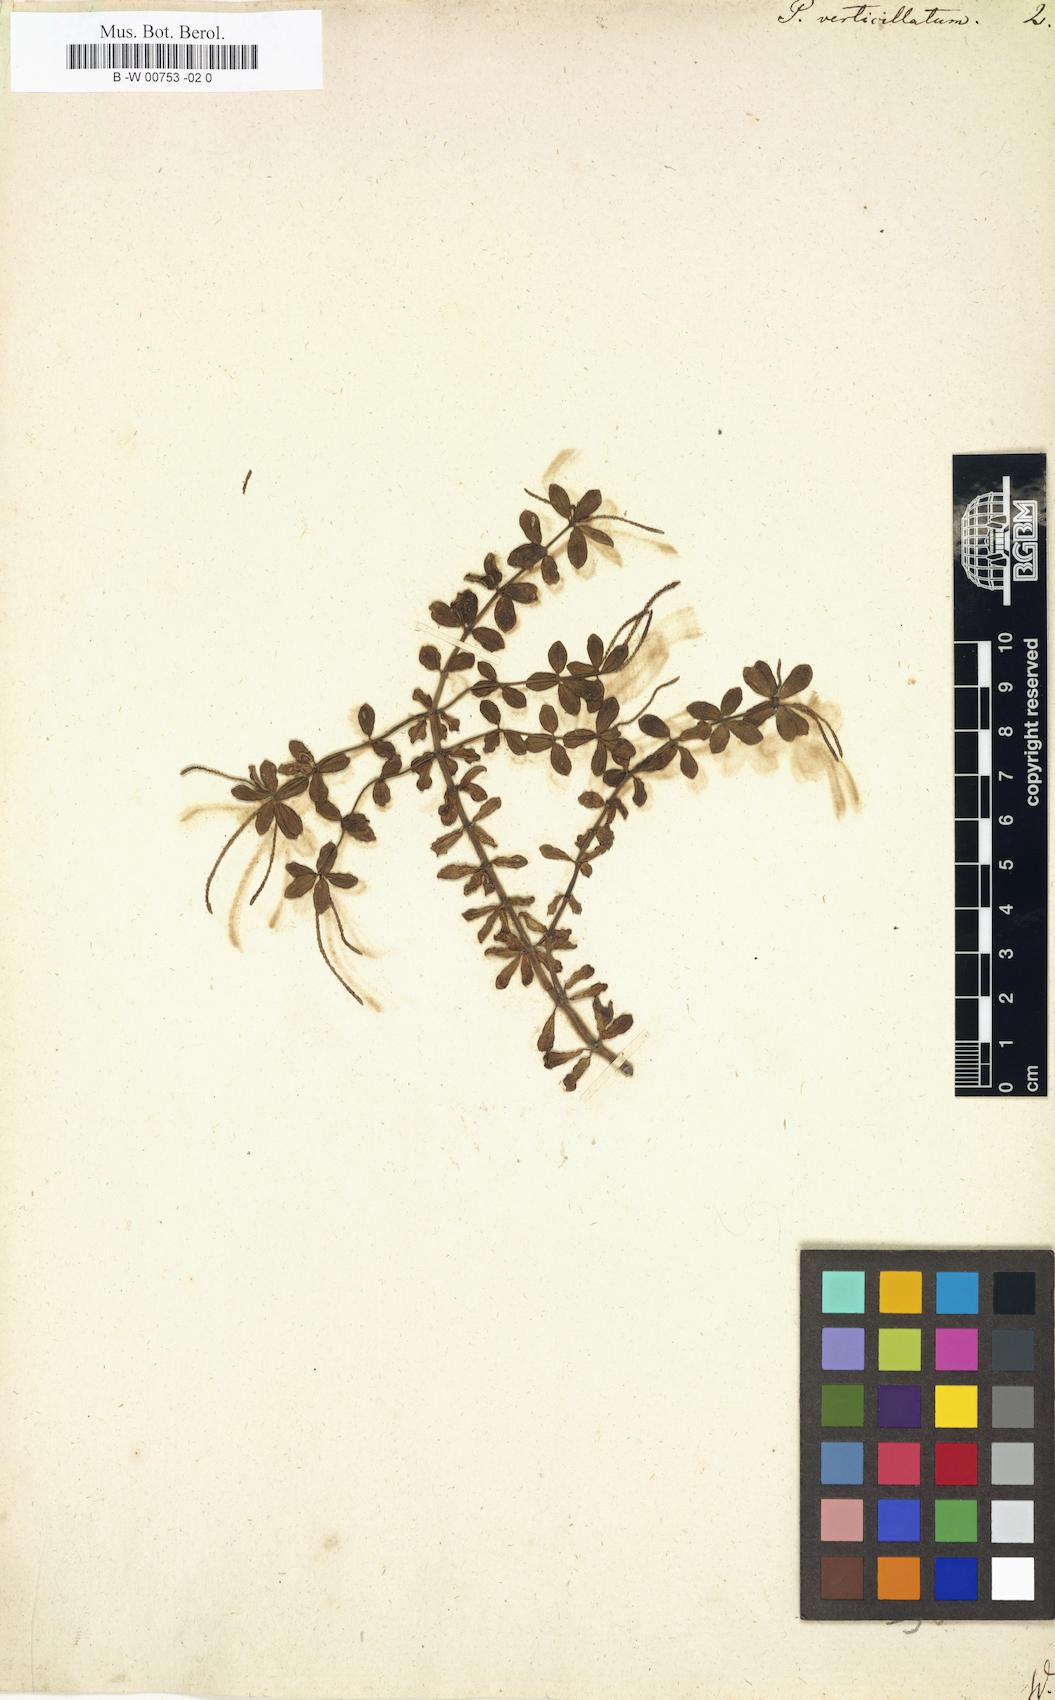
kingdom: Plantae
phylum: Tracheophyta
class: Magnoliopsida
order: Piperales
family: Piperaceae
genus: Peperomia
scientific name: Peperomia verticillata
